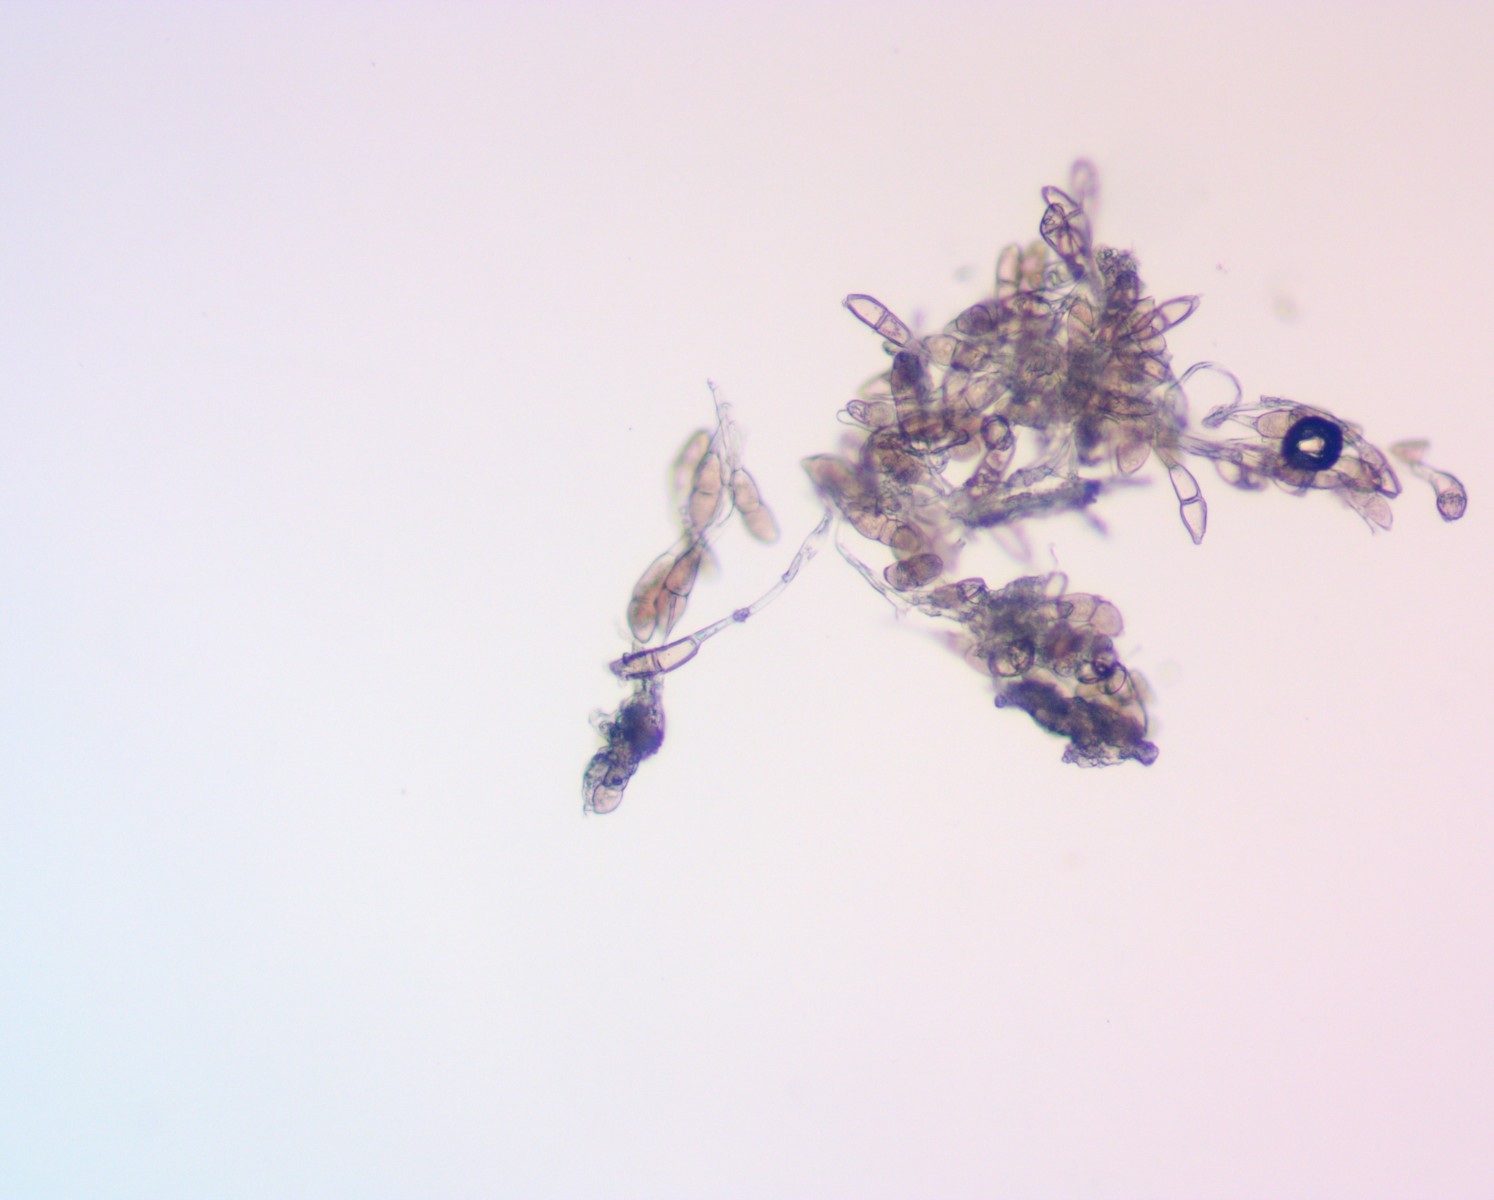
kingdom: Fungi
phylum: Basidiomycota
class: Pucciniomycetes
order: Pucciniales
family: Pucciniaceae
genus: Puccinia
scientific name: Puccinia malvacearum
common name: stokrose-tvecellerust
